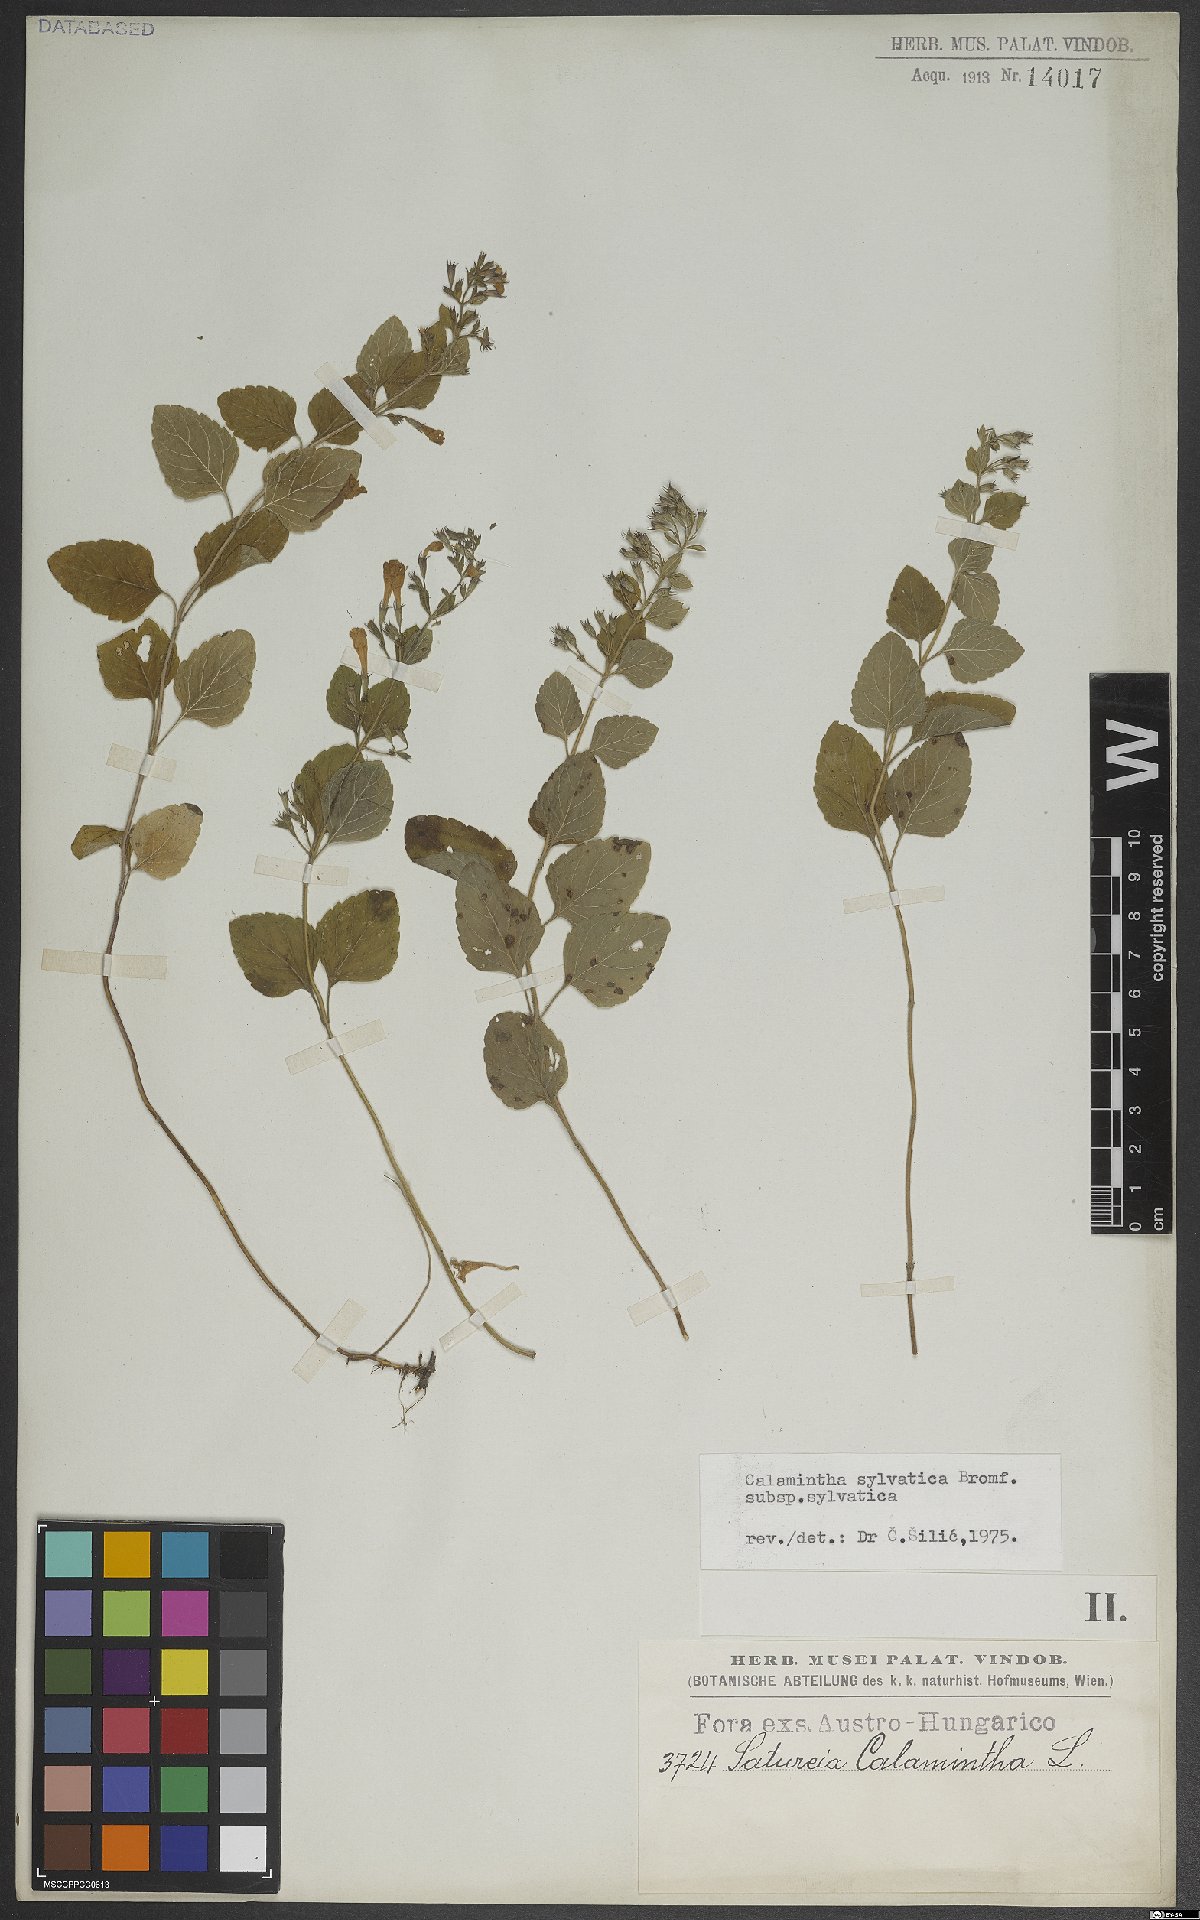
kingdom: Plantae
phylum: Tracheophyta
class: Magnoliopsida
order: Lamiales
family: Lamiaceae
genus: Clinopodium
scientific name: Clinopodium menthifolium
